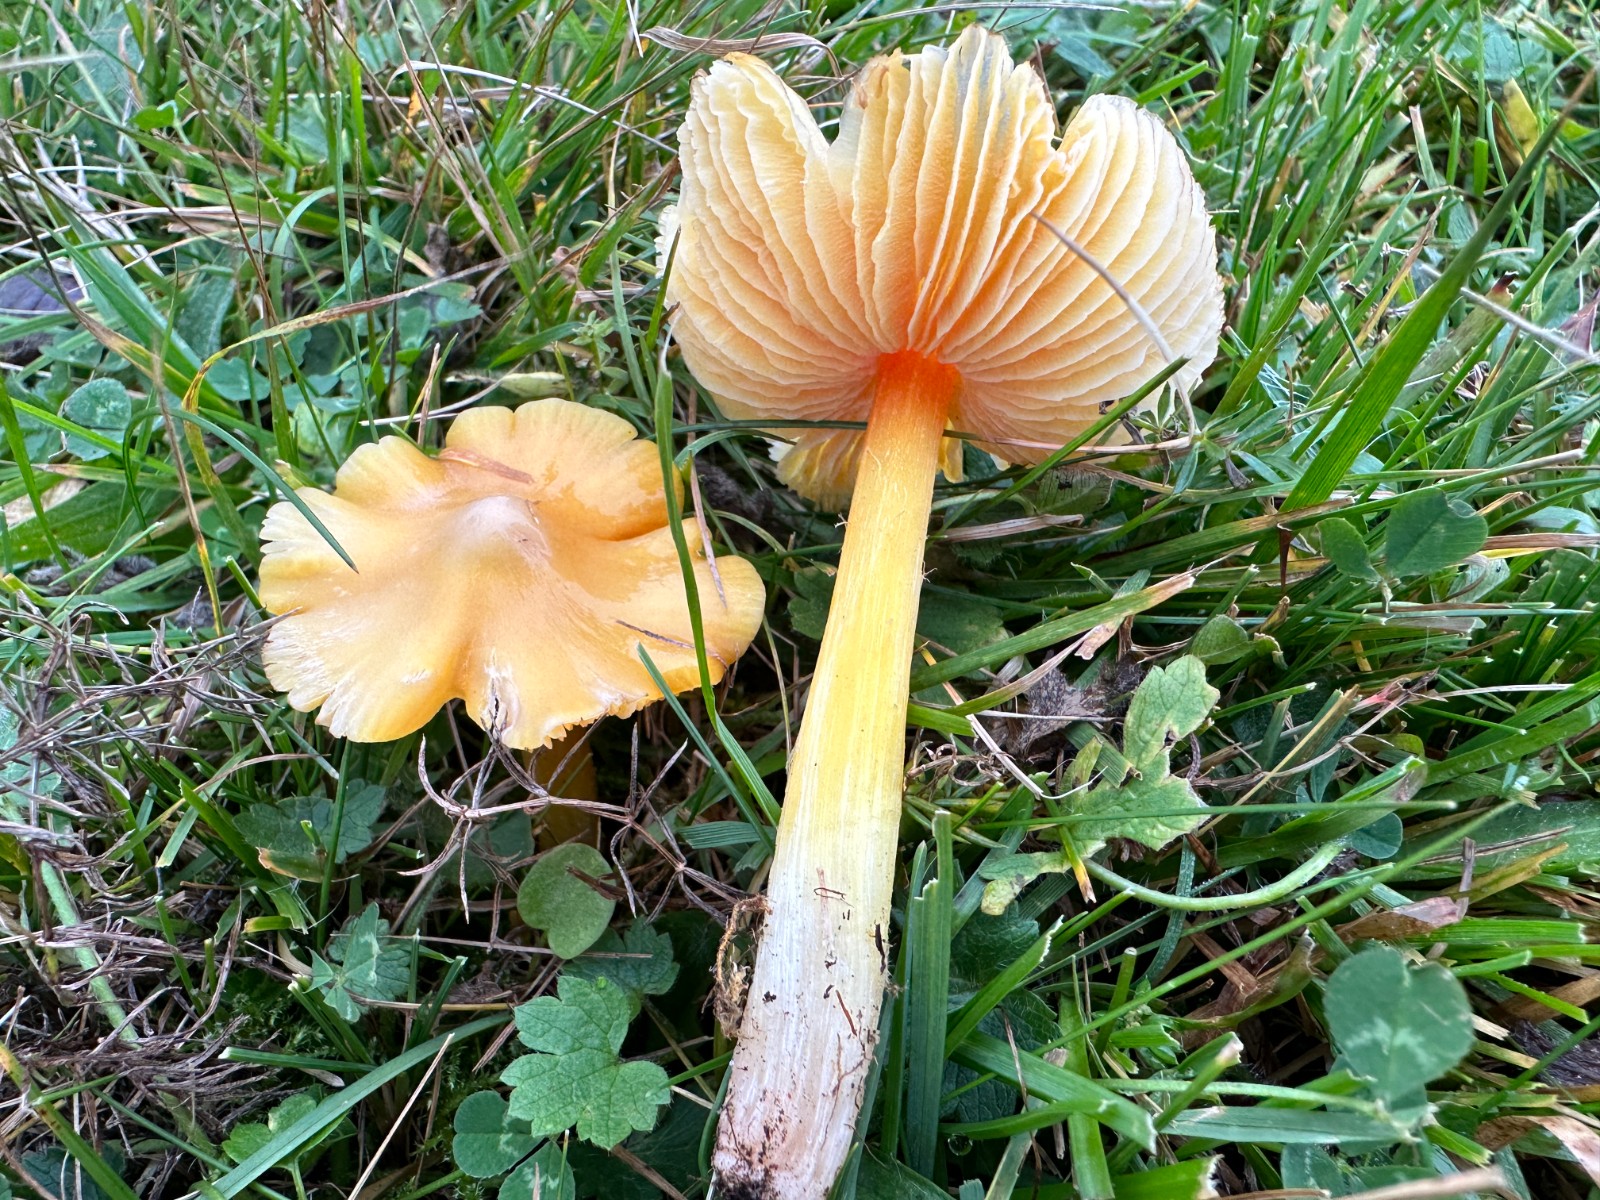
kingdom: Fungi
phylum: Basidiomycota
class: Agaricomycetes
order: Agaricales
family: Hygrophoraceae
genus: Hygrocybe
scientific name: Hygrocybe acutoconica
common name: Konrads vokshat
